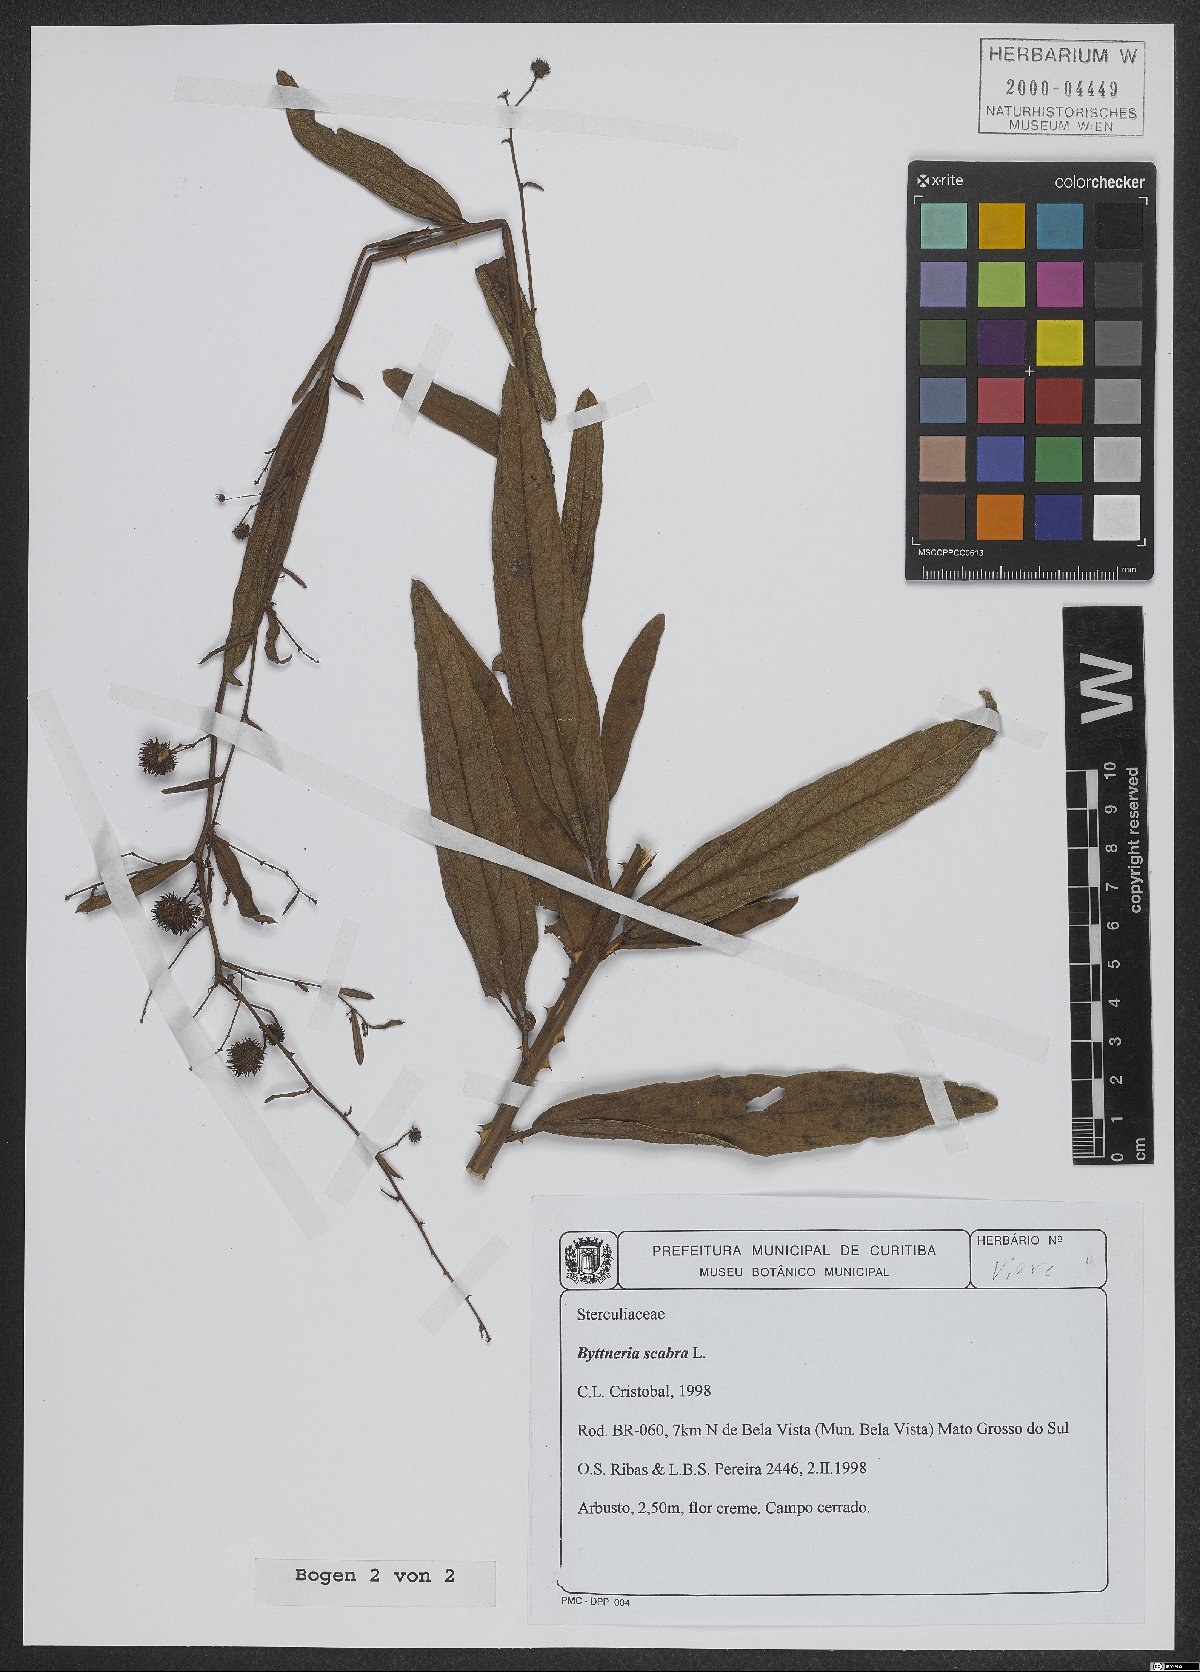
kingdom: Plantae
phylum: Tracheophyta
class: Magnoliopsida
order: Malvales
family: Malvaceae
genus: Byttneria
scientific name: Byttneria scabra
